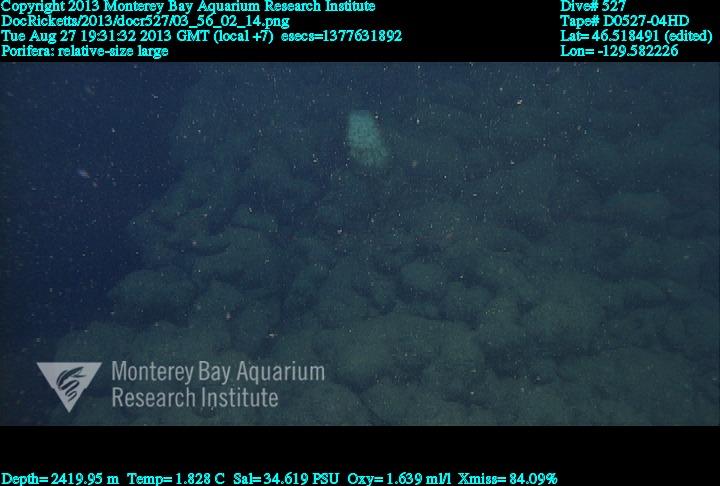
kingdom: Animalia
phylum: Porifera
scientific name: Porifera
